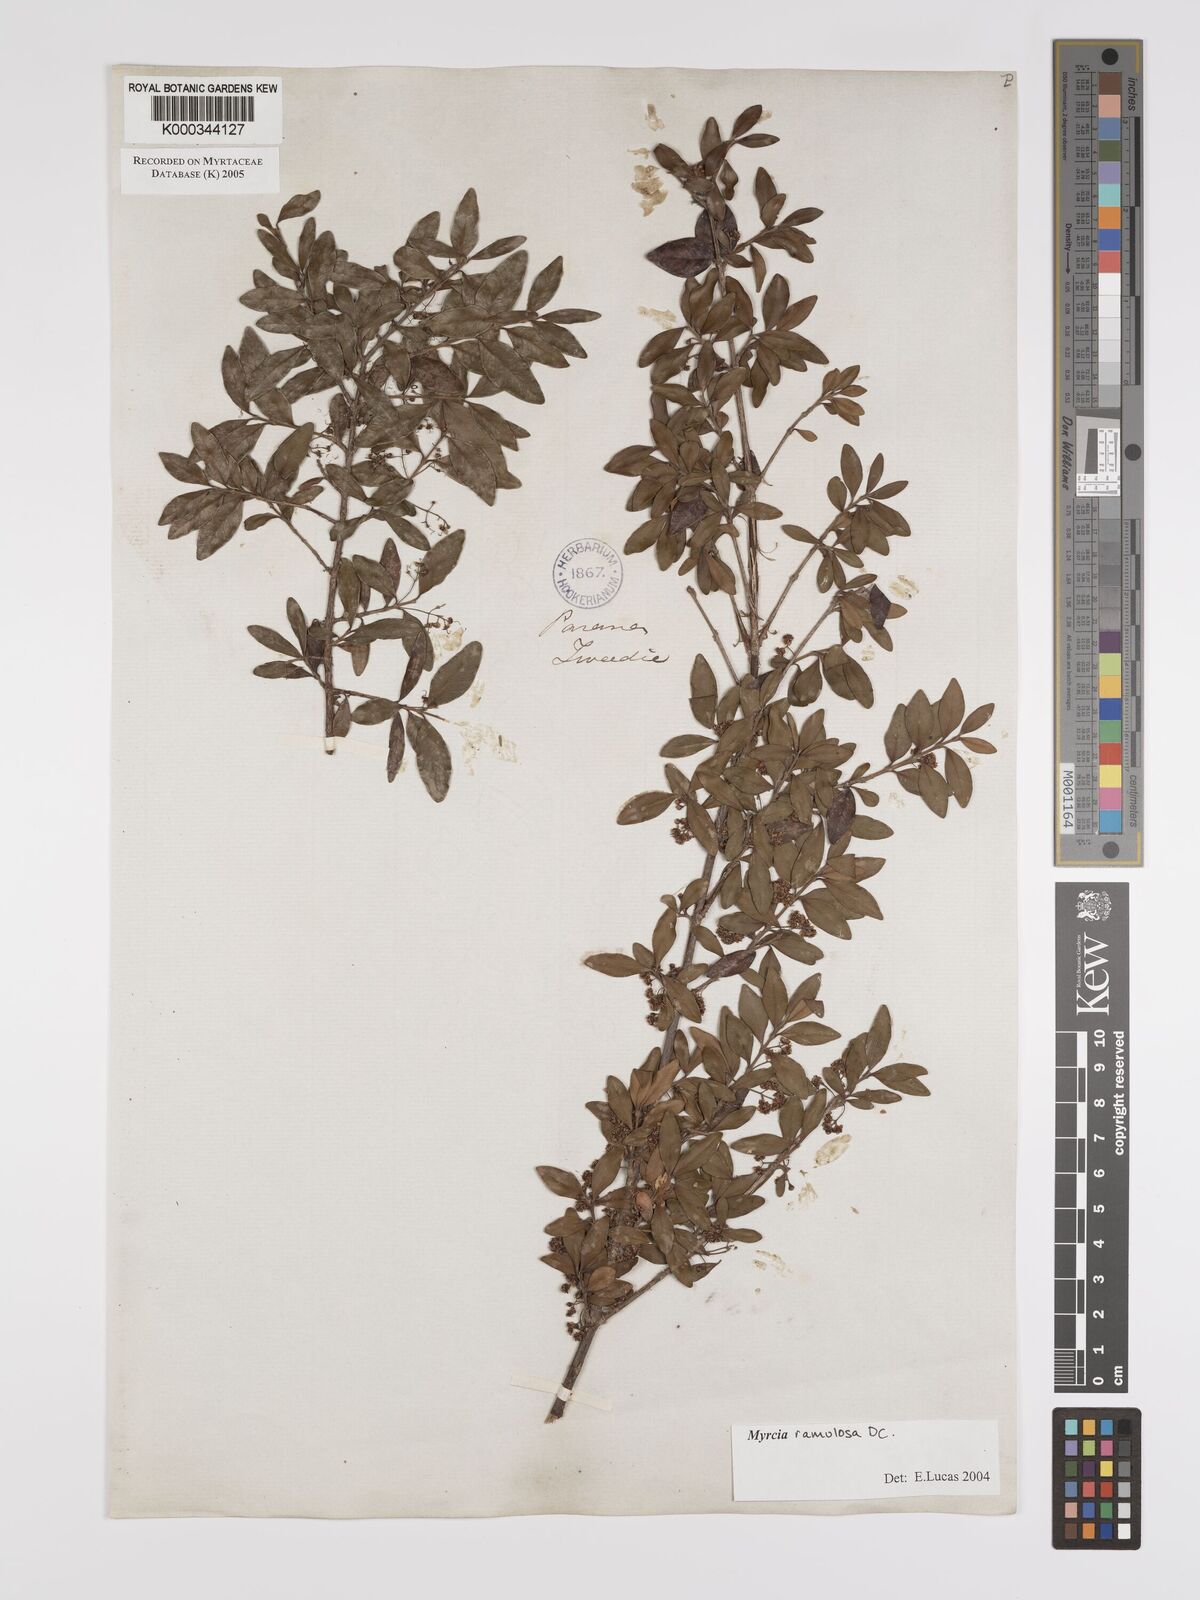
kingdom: Plantae
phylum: Tracheophyta
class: Magnoliopsida
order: Myrtales
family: Myrtaceae
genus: Myrcia
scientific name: Myrcia selloi
